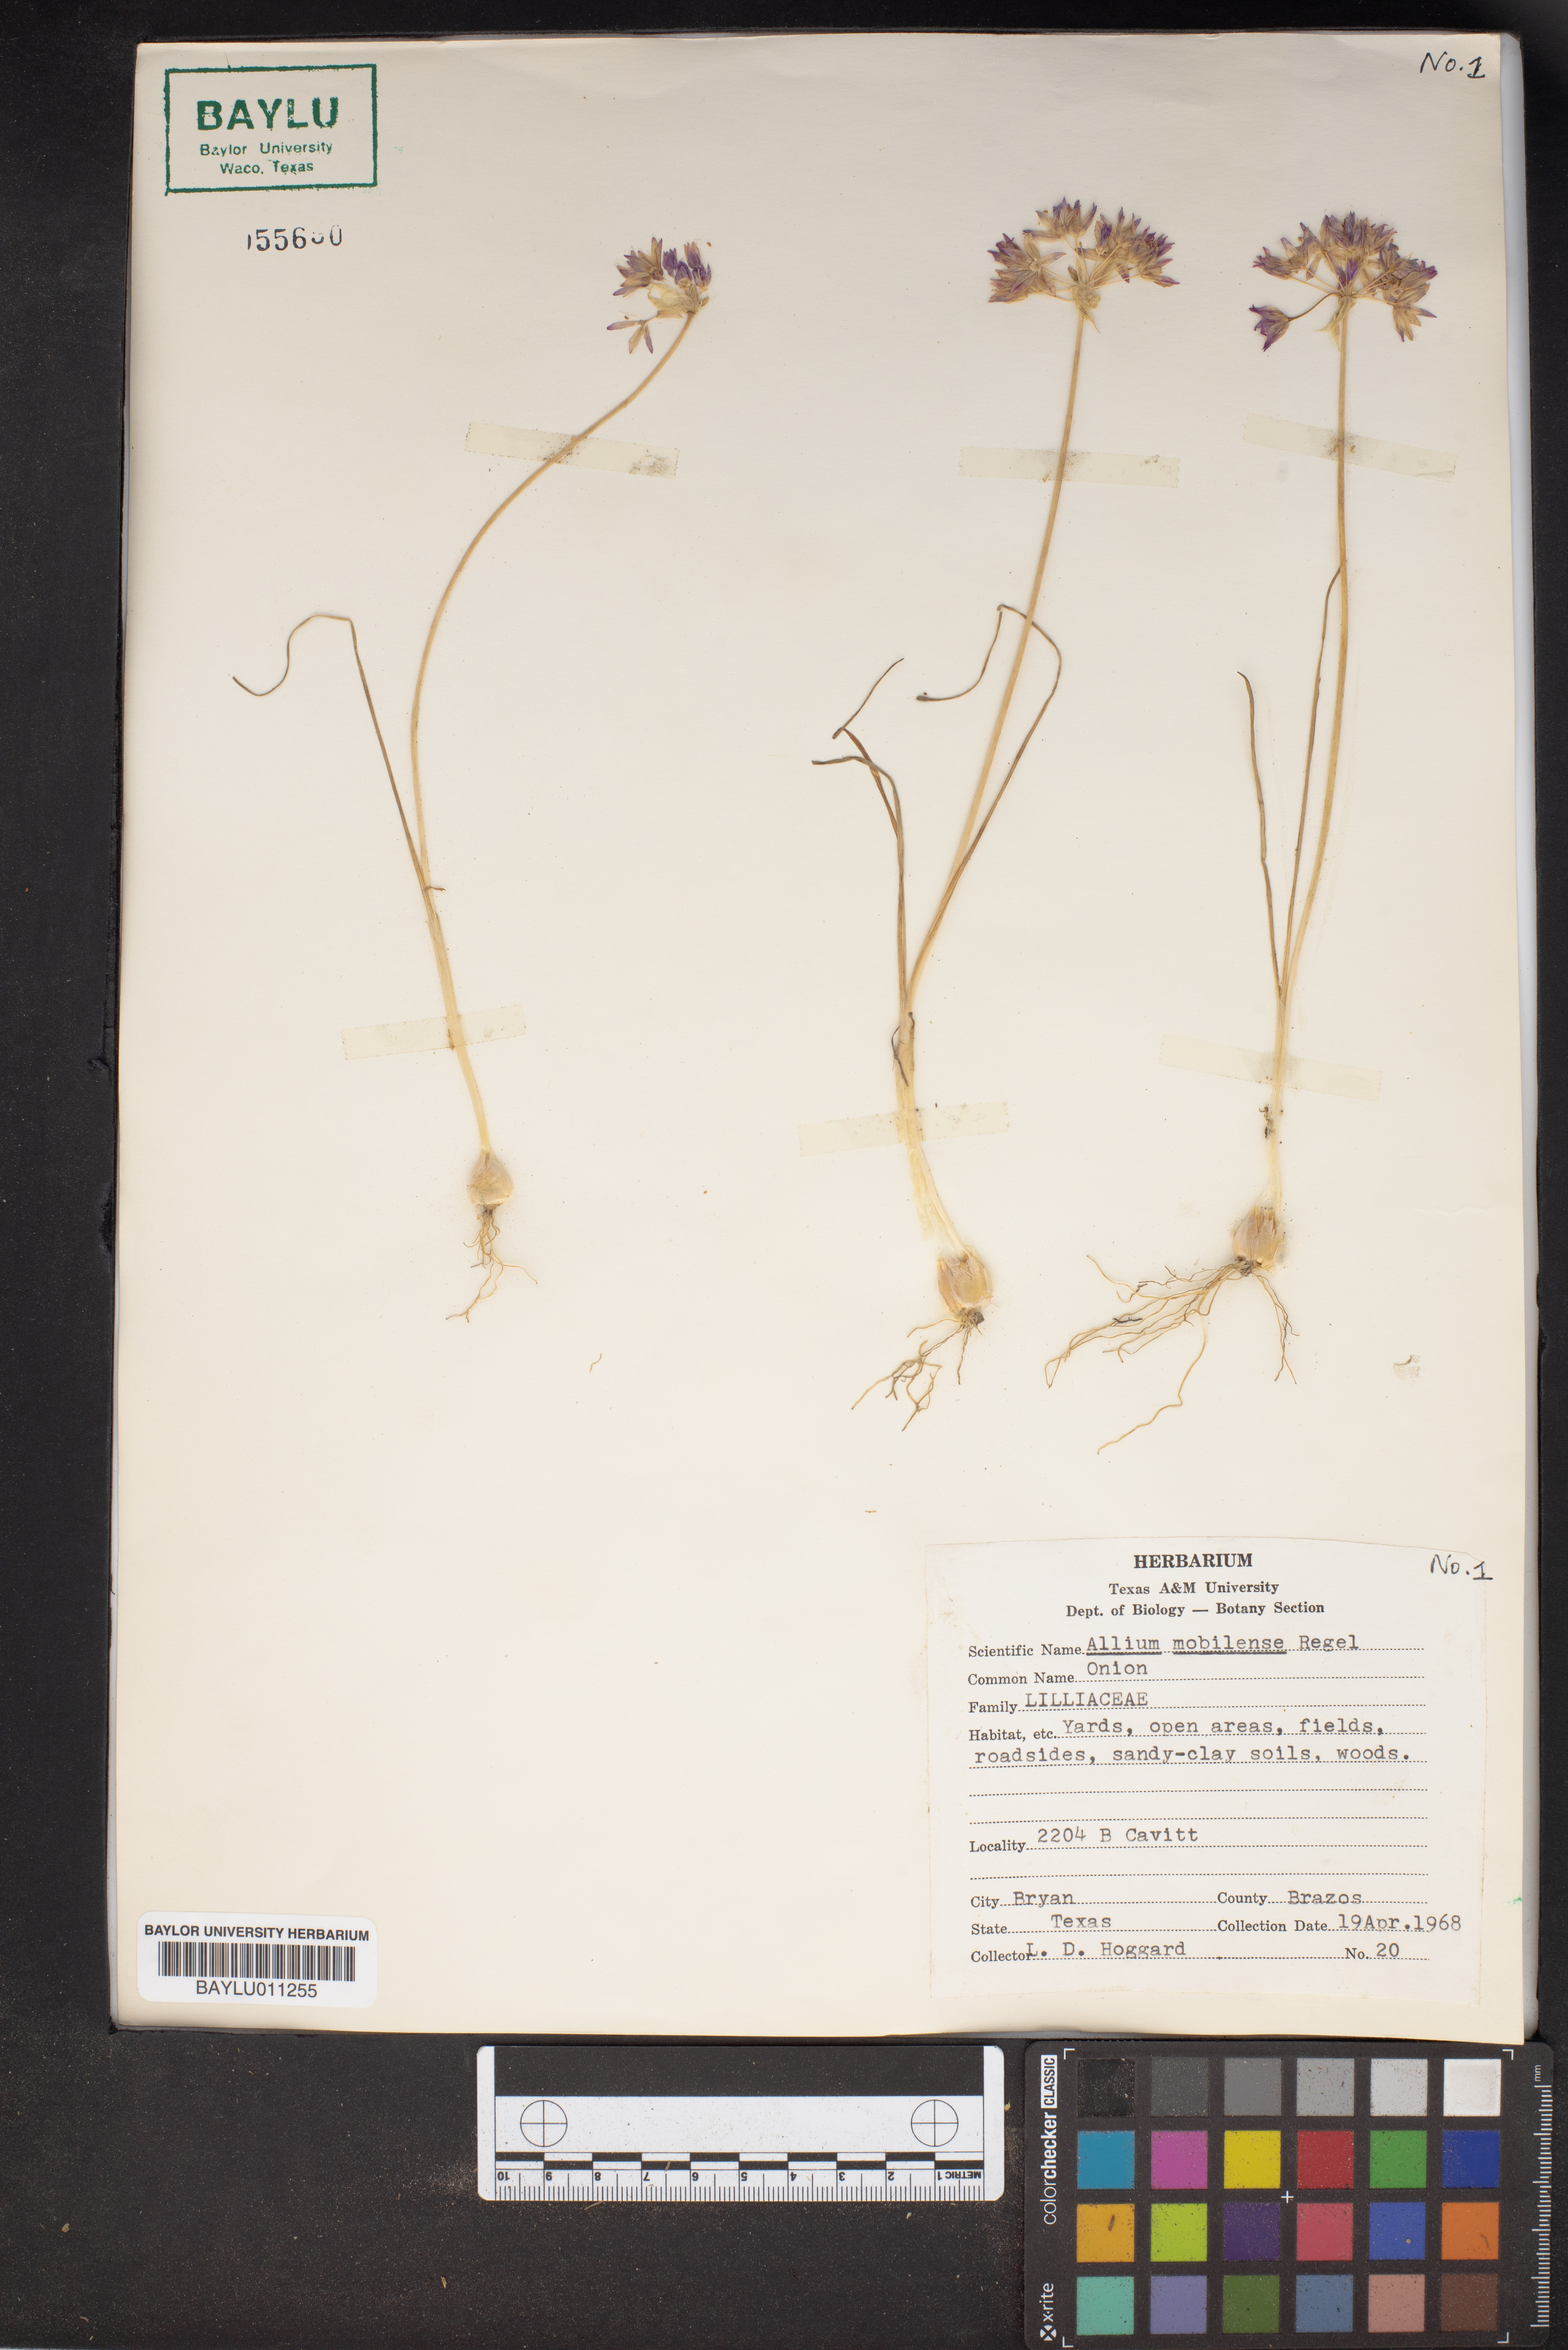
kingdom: Plantae
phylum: Tracheophyta
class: Liliopsida
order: Asparagales
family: Amaryllidaceae
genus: Allium
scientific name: Allium canadense
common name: Meadow garlic
